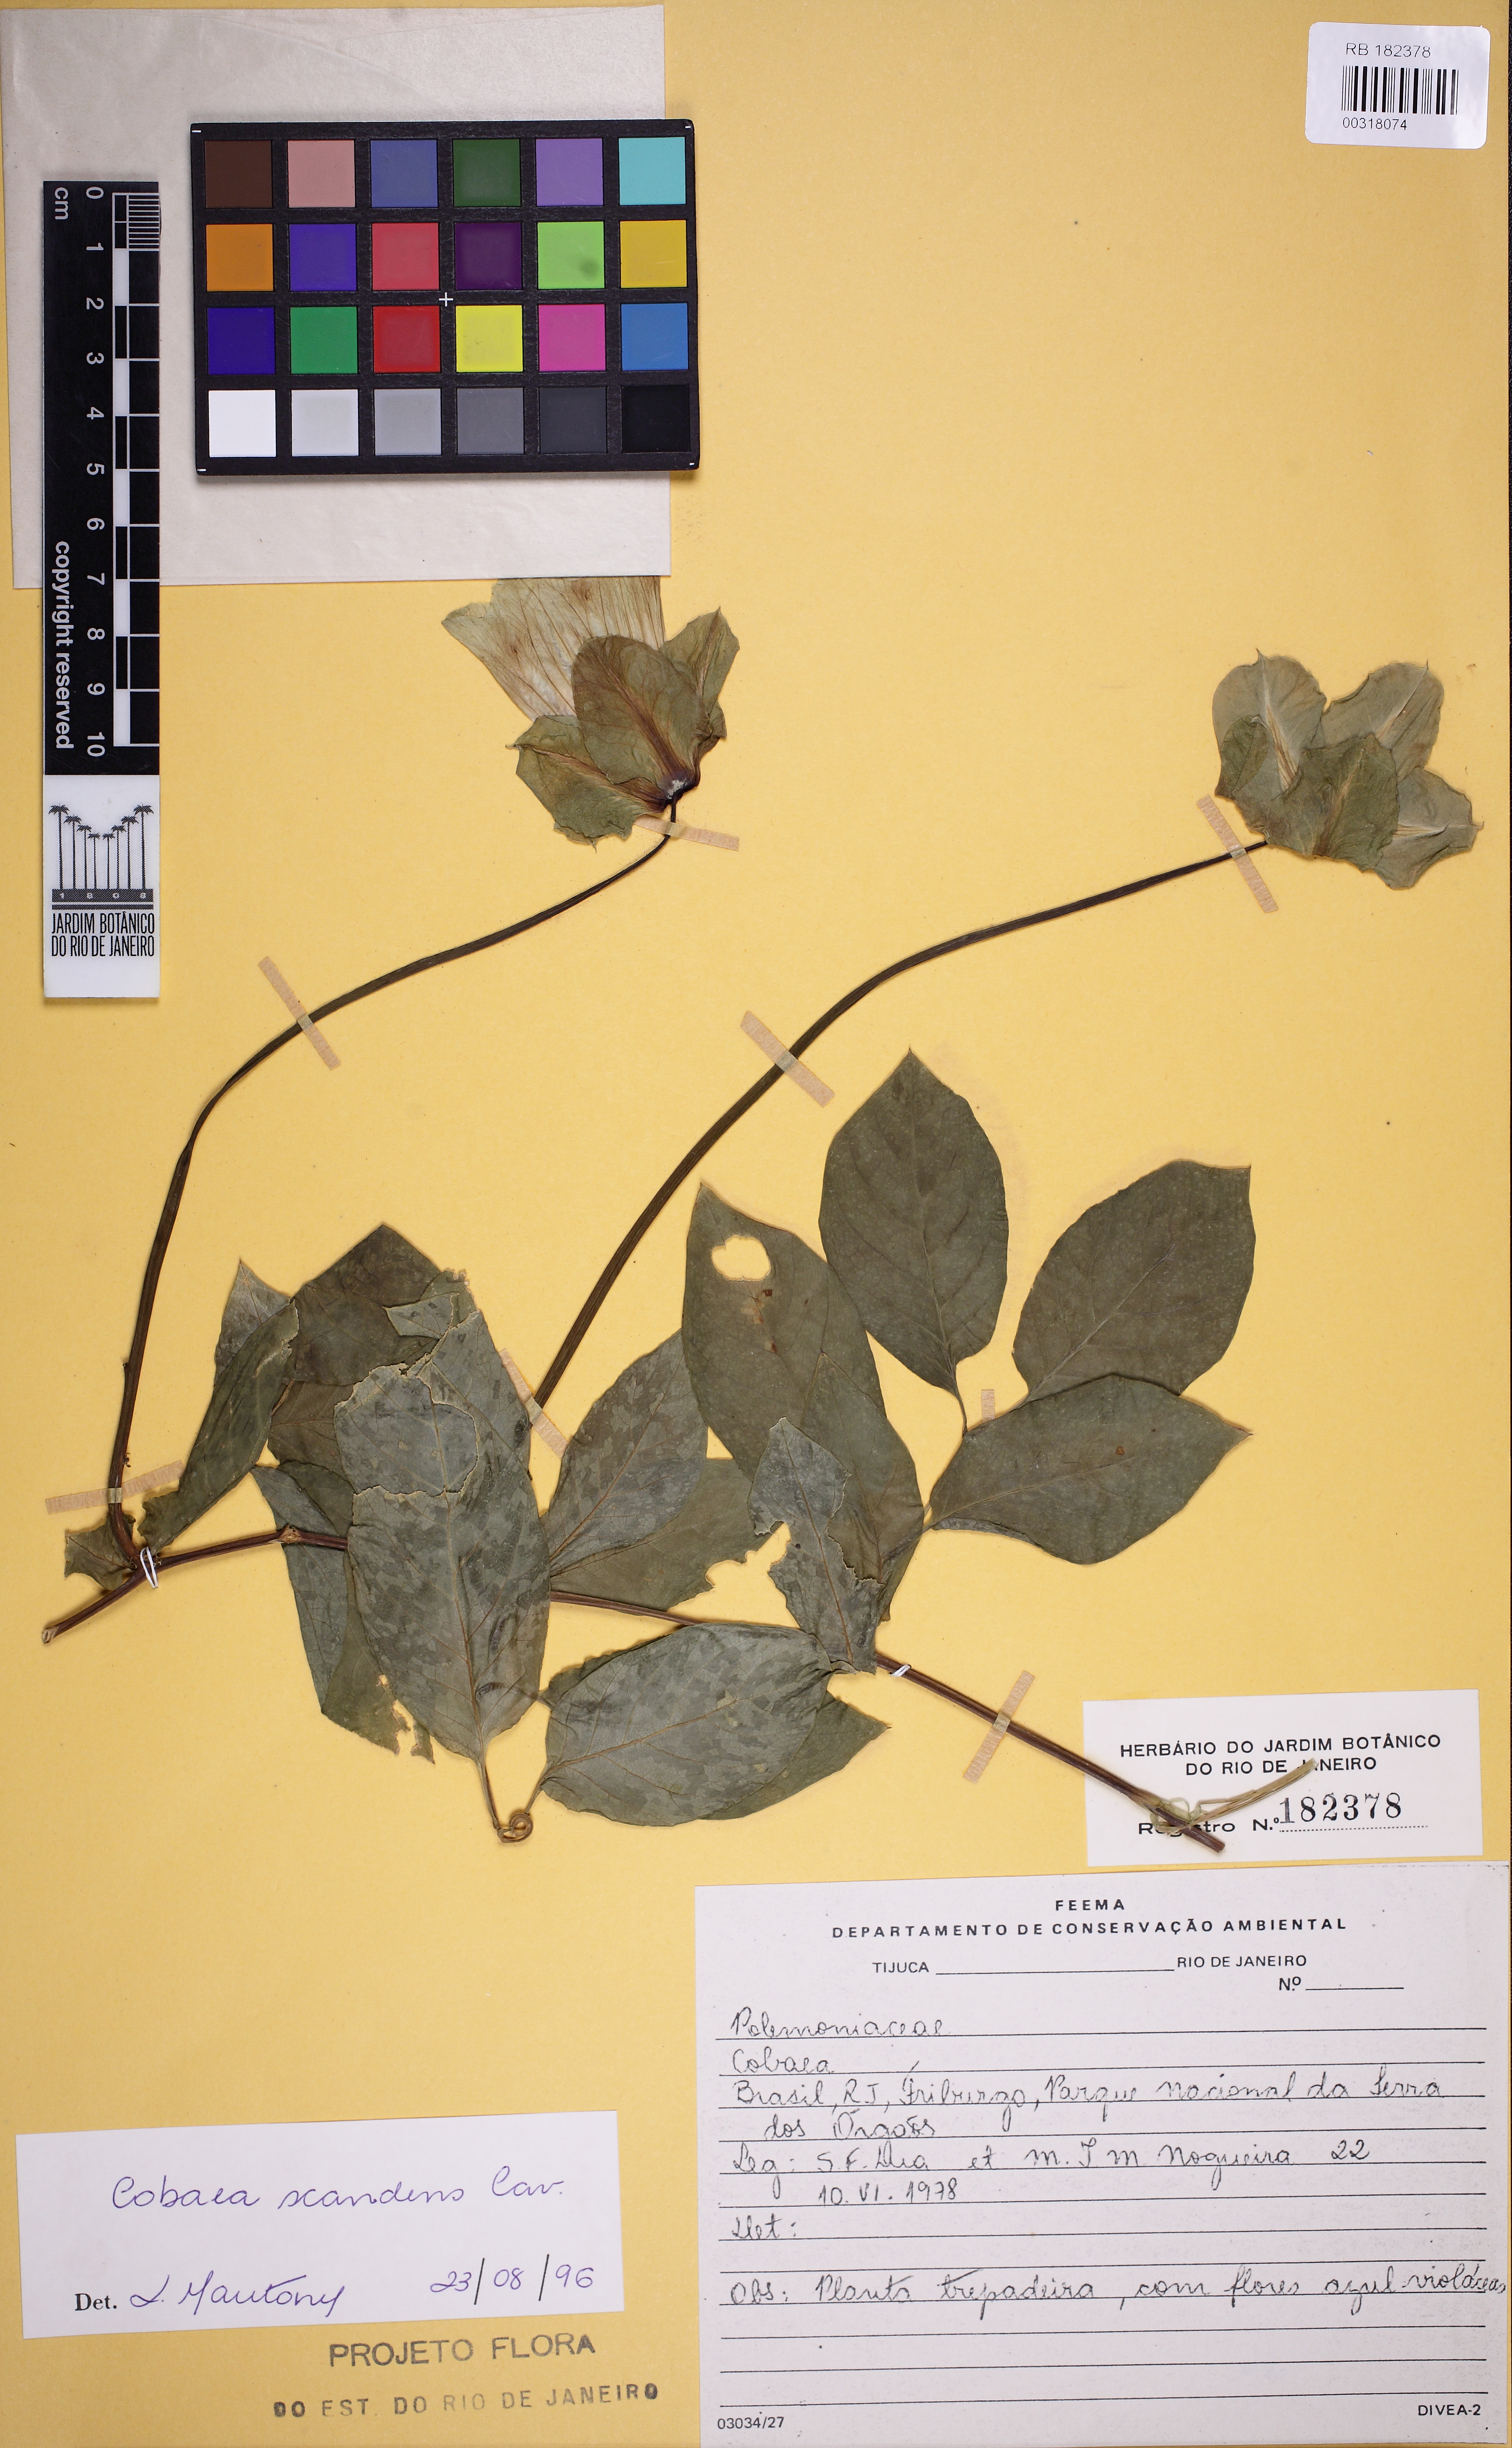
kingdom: Plantae
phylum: Tracheophyta
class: Magnoliopsida
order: Ericales
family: Polemoniaceae
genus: Cobaea
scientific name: Cobaea scandens
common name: Cup-and-saucer-vine
